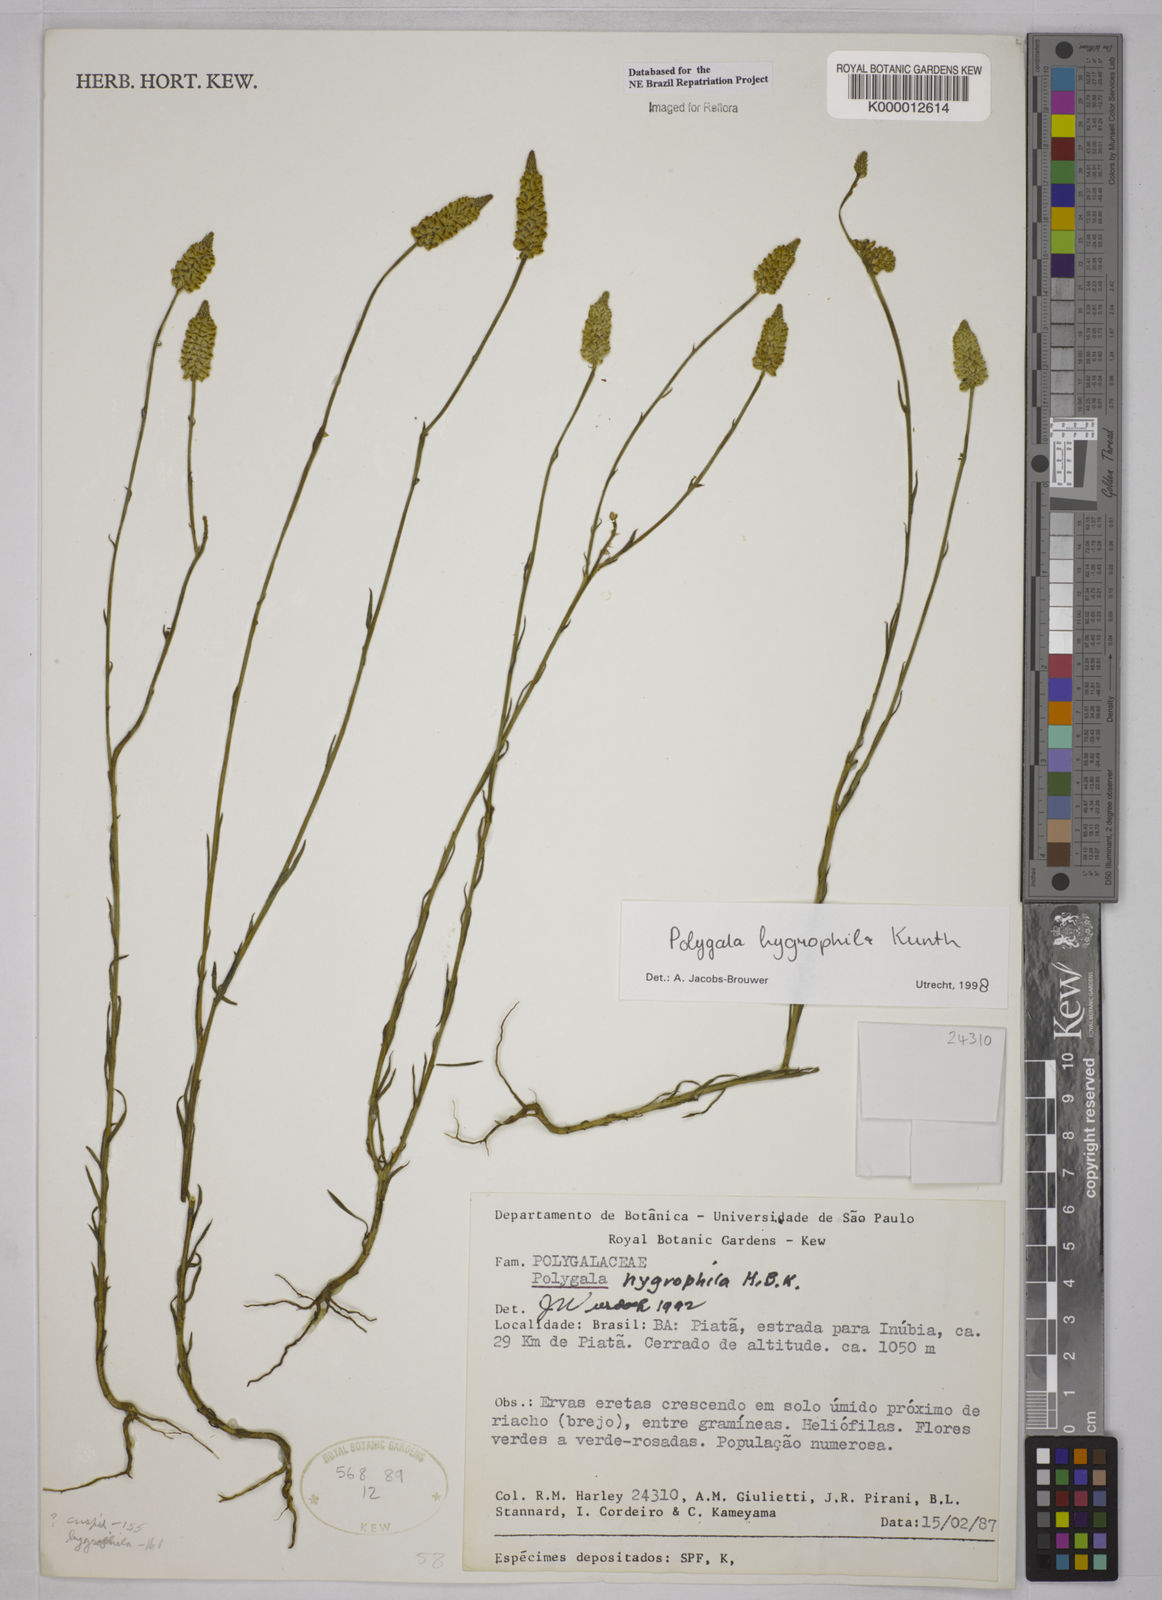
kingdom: Plantae
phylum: Tracheophyta
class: Magnoliopsida
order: Fabales
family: Polygalaceae
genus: Polygala
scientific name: Polygala hygrophila
